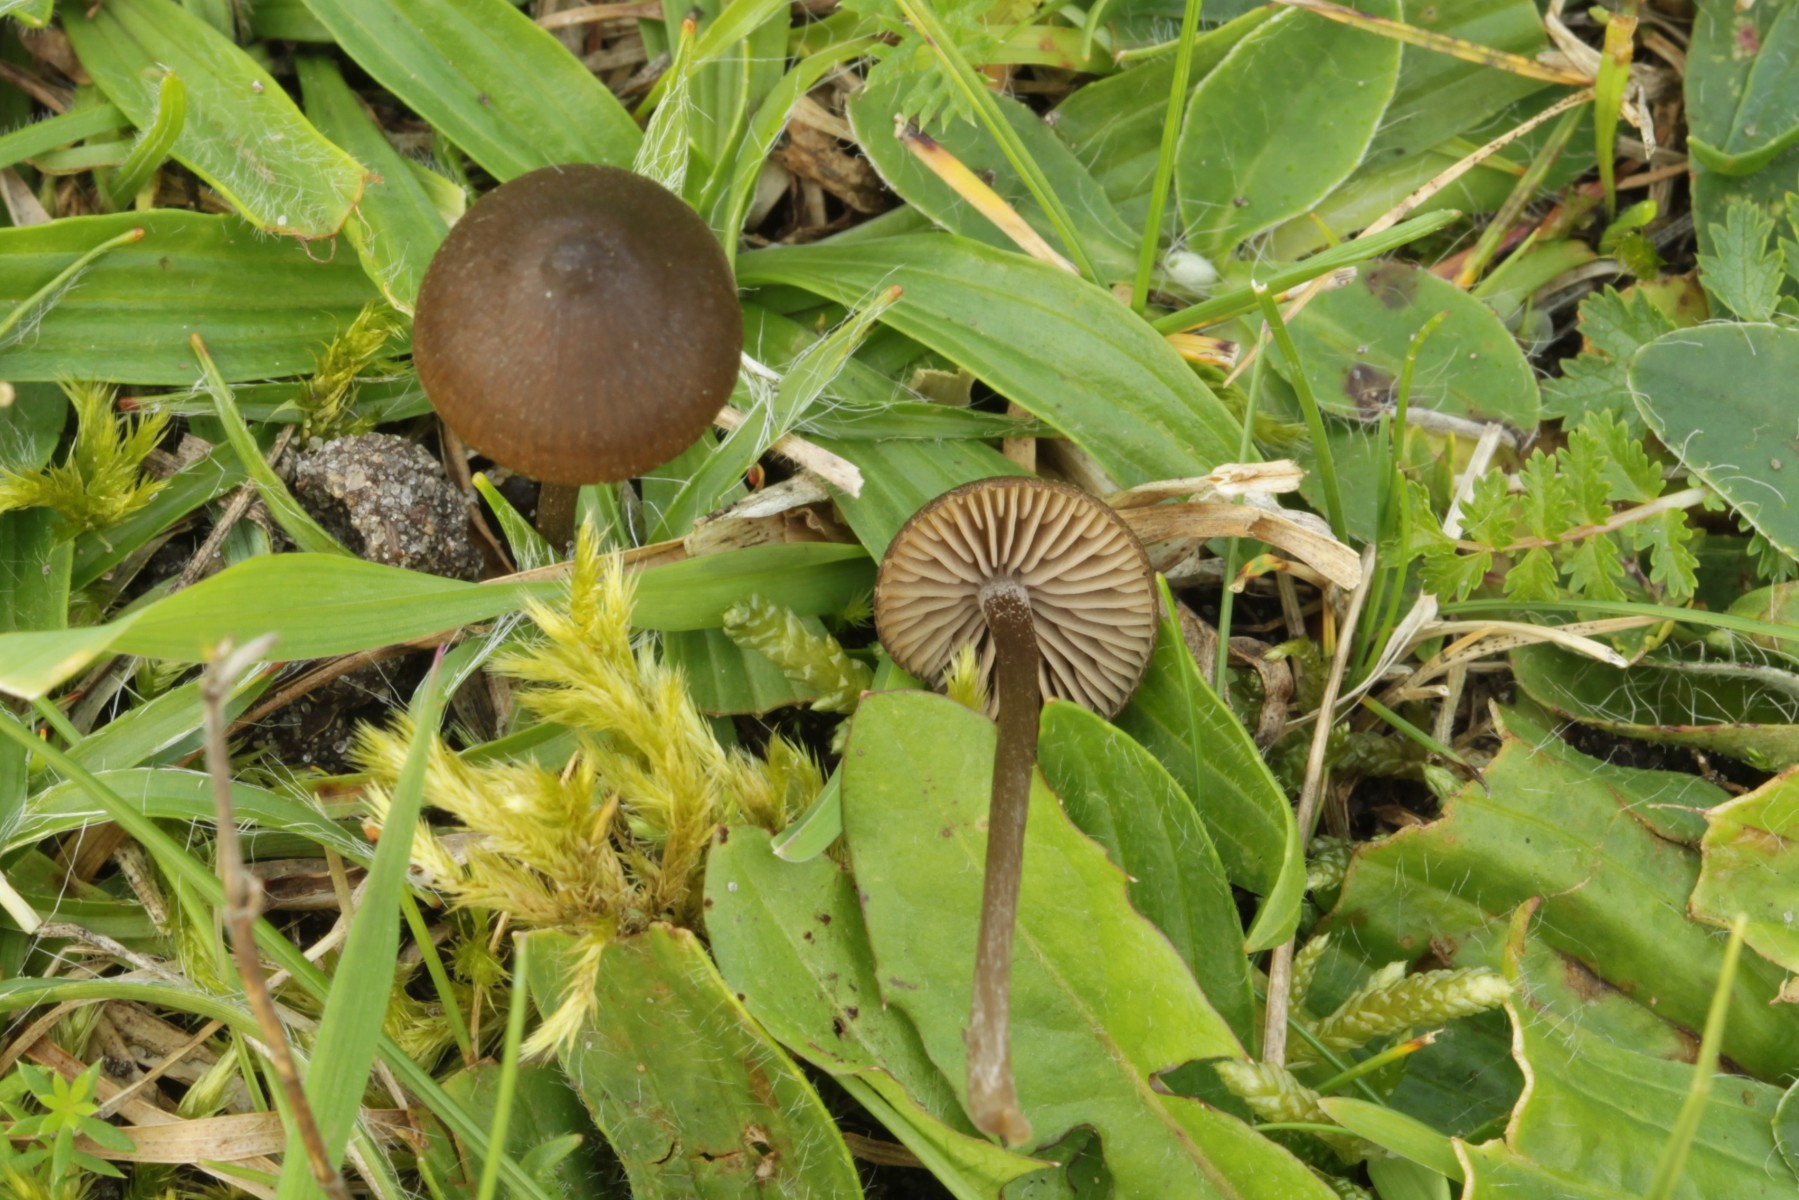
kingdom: Fungi
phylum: Basidiomycota
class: Agaricomycetes
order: Agaricales
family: Entolomataceae
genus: Entoloma
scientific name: Entoloma clandestinum
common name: tykbladet rødblad
